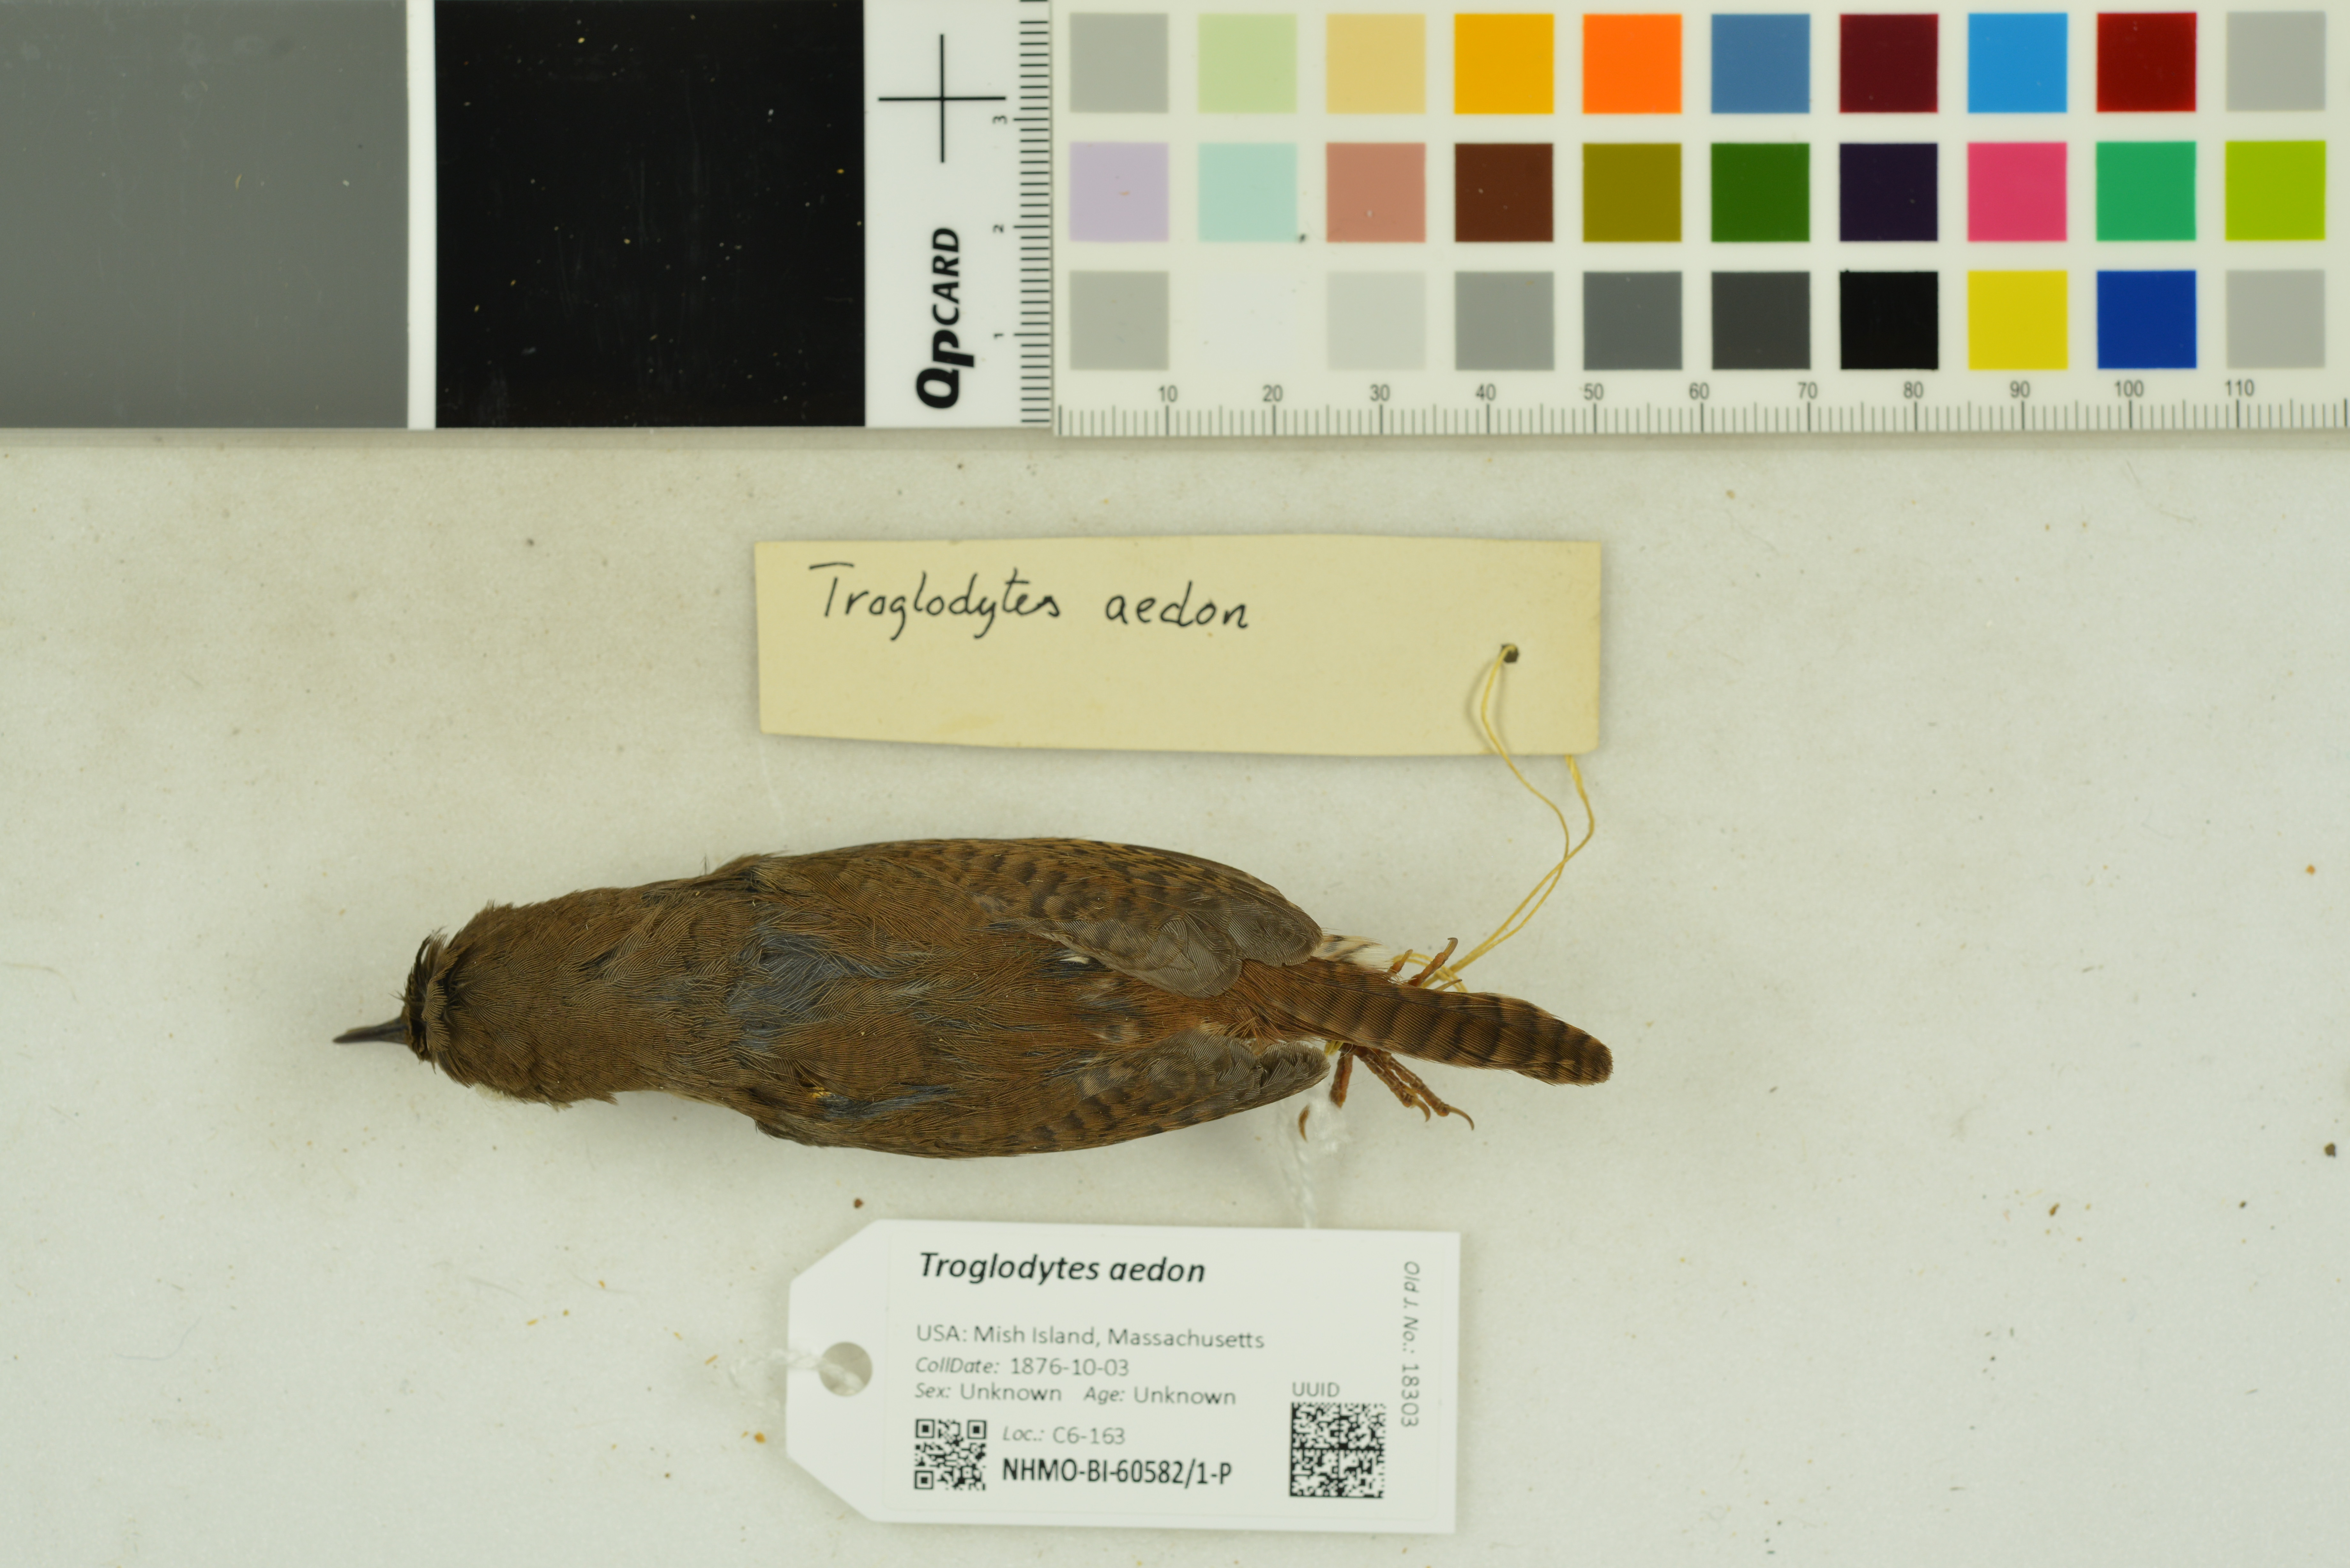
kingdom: Animalia
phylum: Chordata
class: Aves
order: Passeriformes
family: Troglodytidae
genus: Troglodytes
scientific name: Troglodytes aedon
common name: House wren
